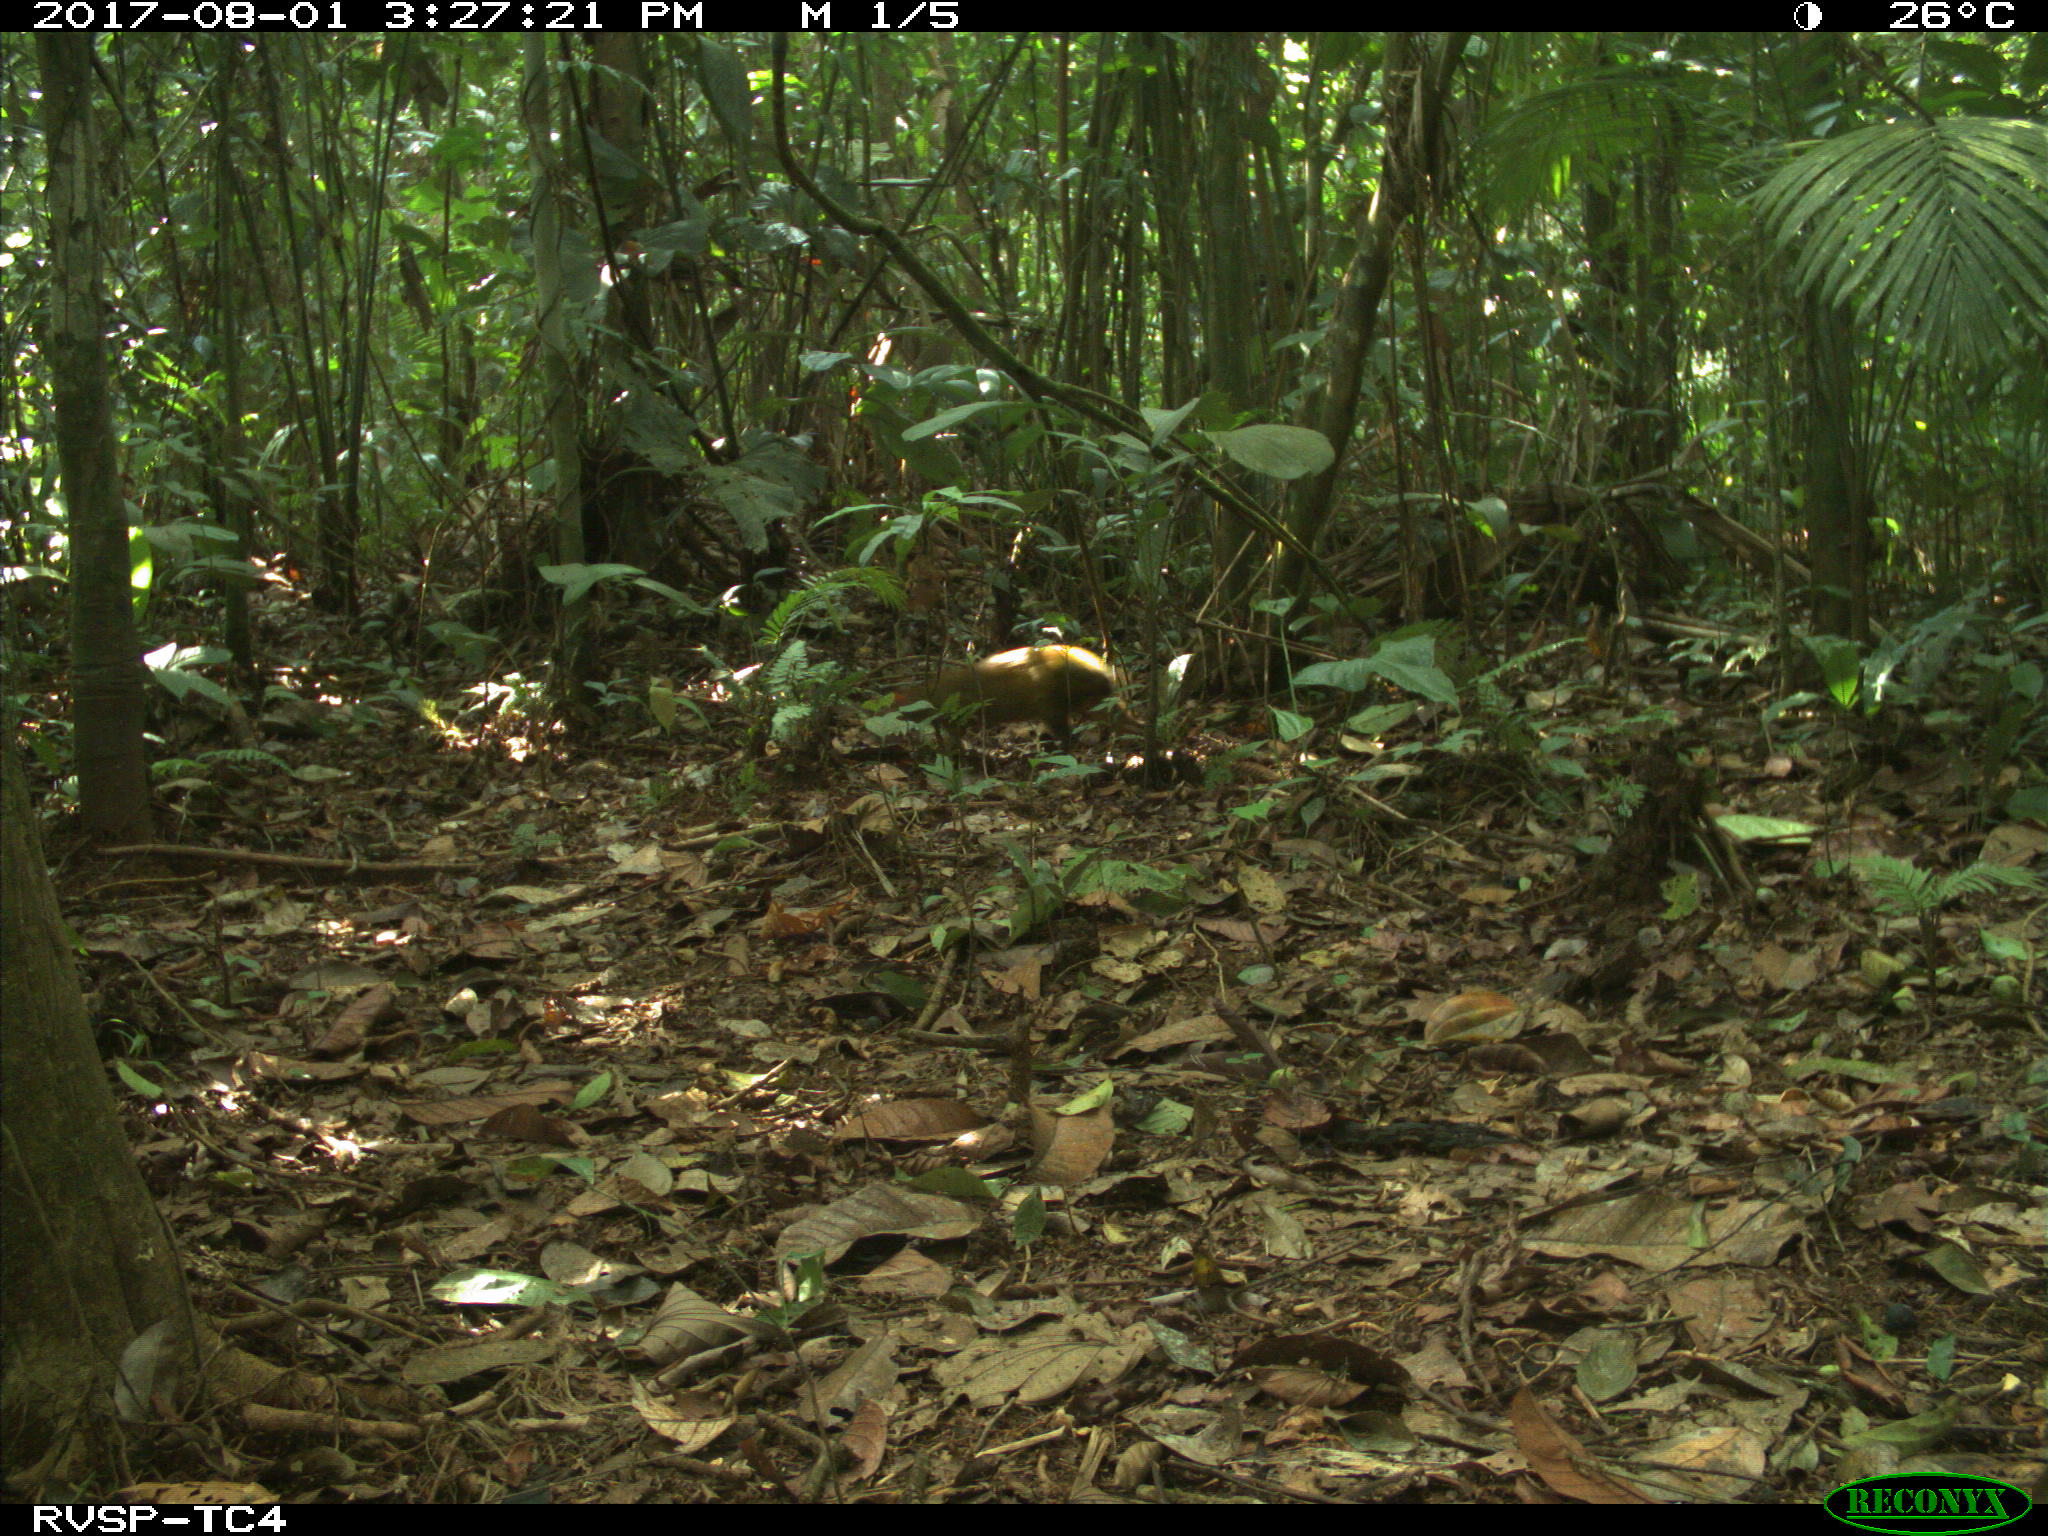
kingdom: Animalia
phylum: Chordata
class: Mammalia
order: Rodentia
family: Dasyproctidae
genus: Dasyprocta
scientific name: Dasyprocta punctata
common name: Central american agouti
